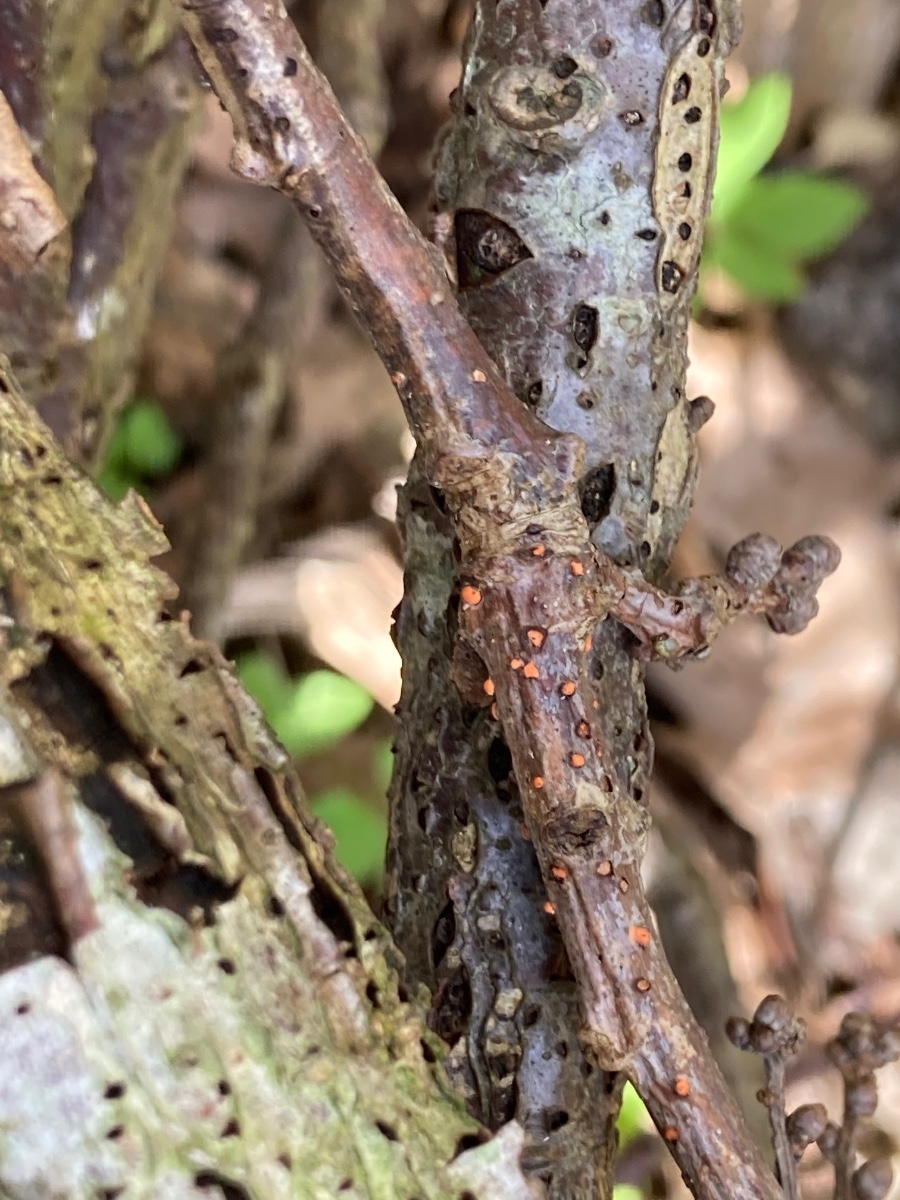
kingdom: Fungi
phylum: Ascomycota
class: Sordariomycetes
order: Hypocreales
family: Nectriaceae
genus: Nectria
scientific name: Nectria cinnabarina
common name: almindelig cinnobersvamp
